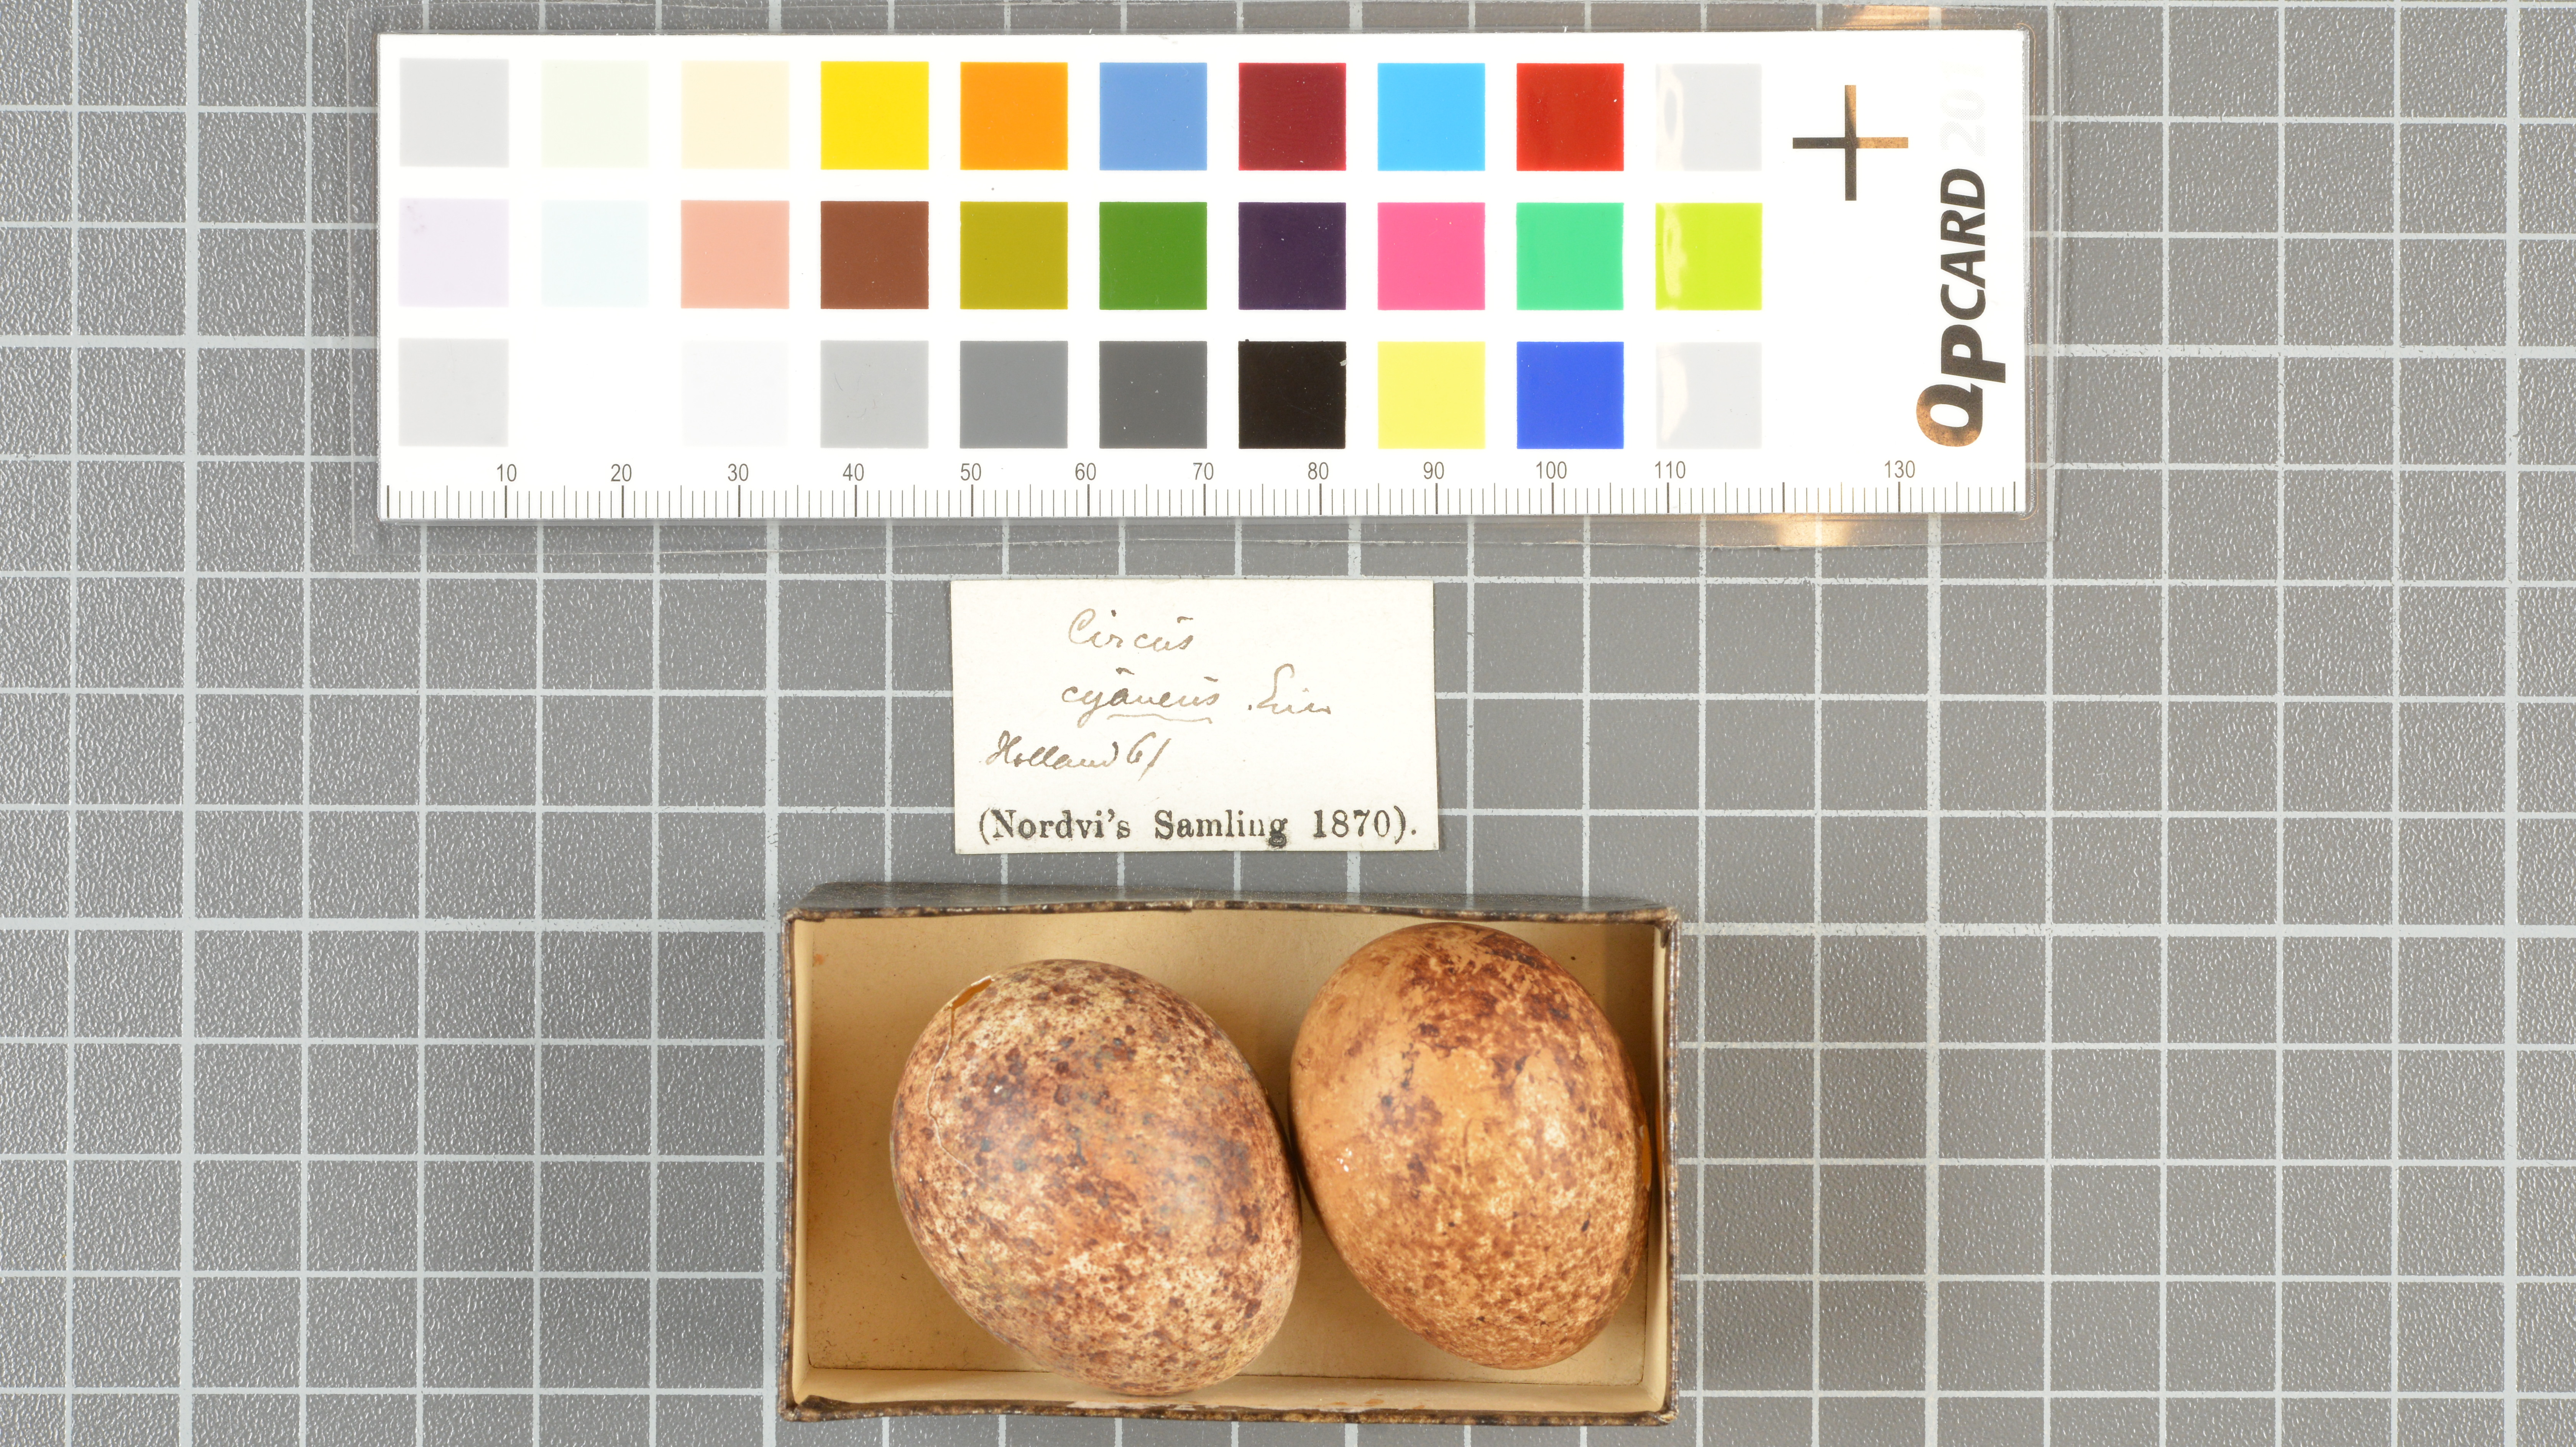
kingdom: Animalia
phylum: Chordata
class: Aves
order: Accipitriformes
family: Accipitridae
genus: Circus
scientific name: Circus cyaneus
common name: Hen harrier
